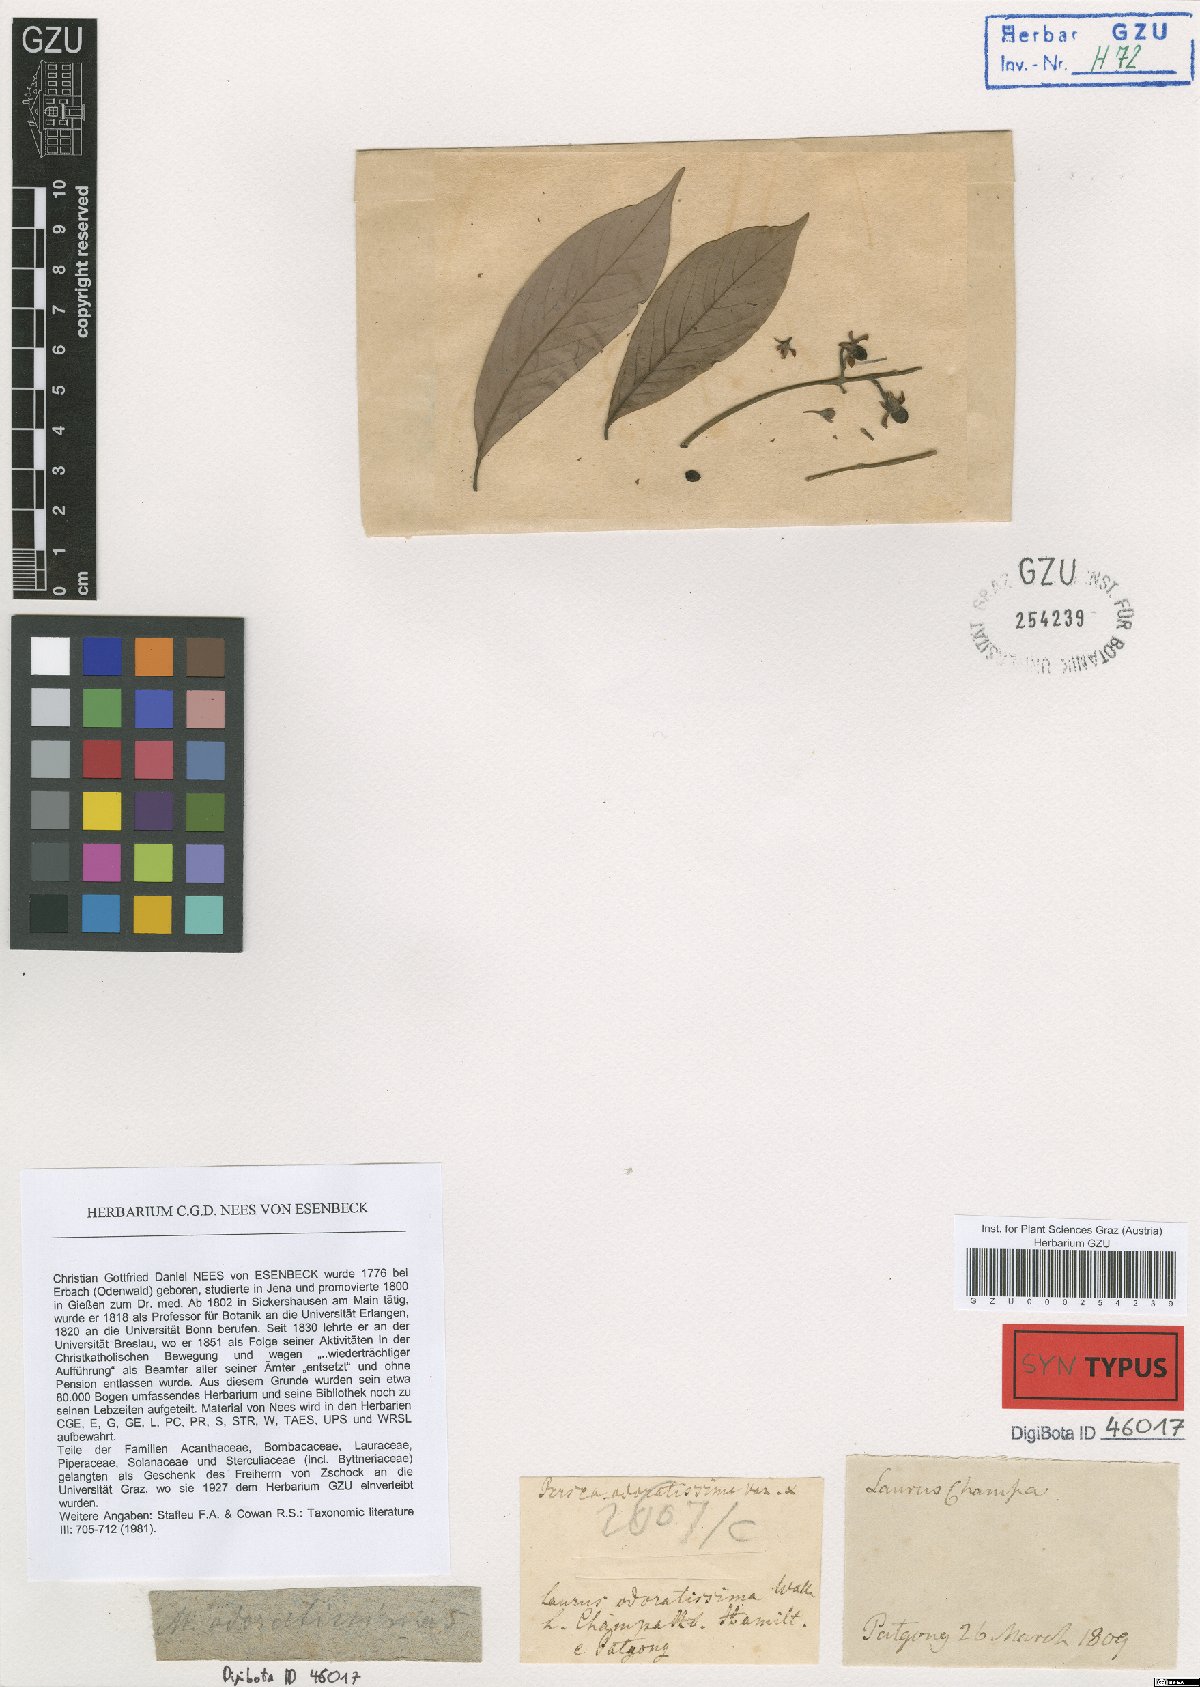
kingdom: Plantae
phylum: Tracheophyta
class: Magnoliopsida
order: Laurales
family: Lauraceae
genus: Machilus
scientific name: Machilus odoratissimus
